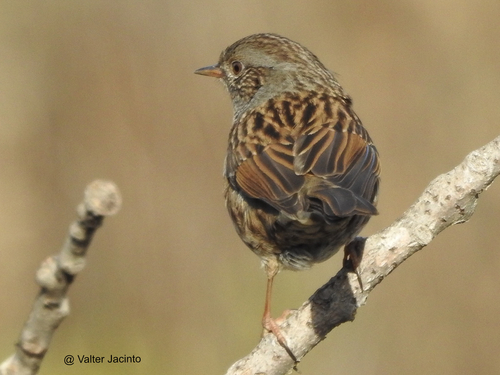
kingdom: Animalia
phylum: Chordata
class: Aves
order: Passeriformes
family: Prunellidae
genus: Prunella
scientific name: Prunella modularis
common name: Dunnock
